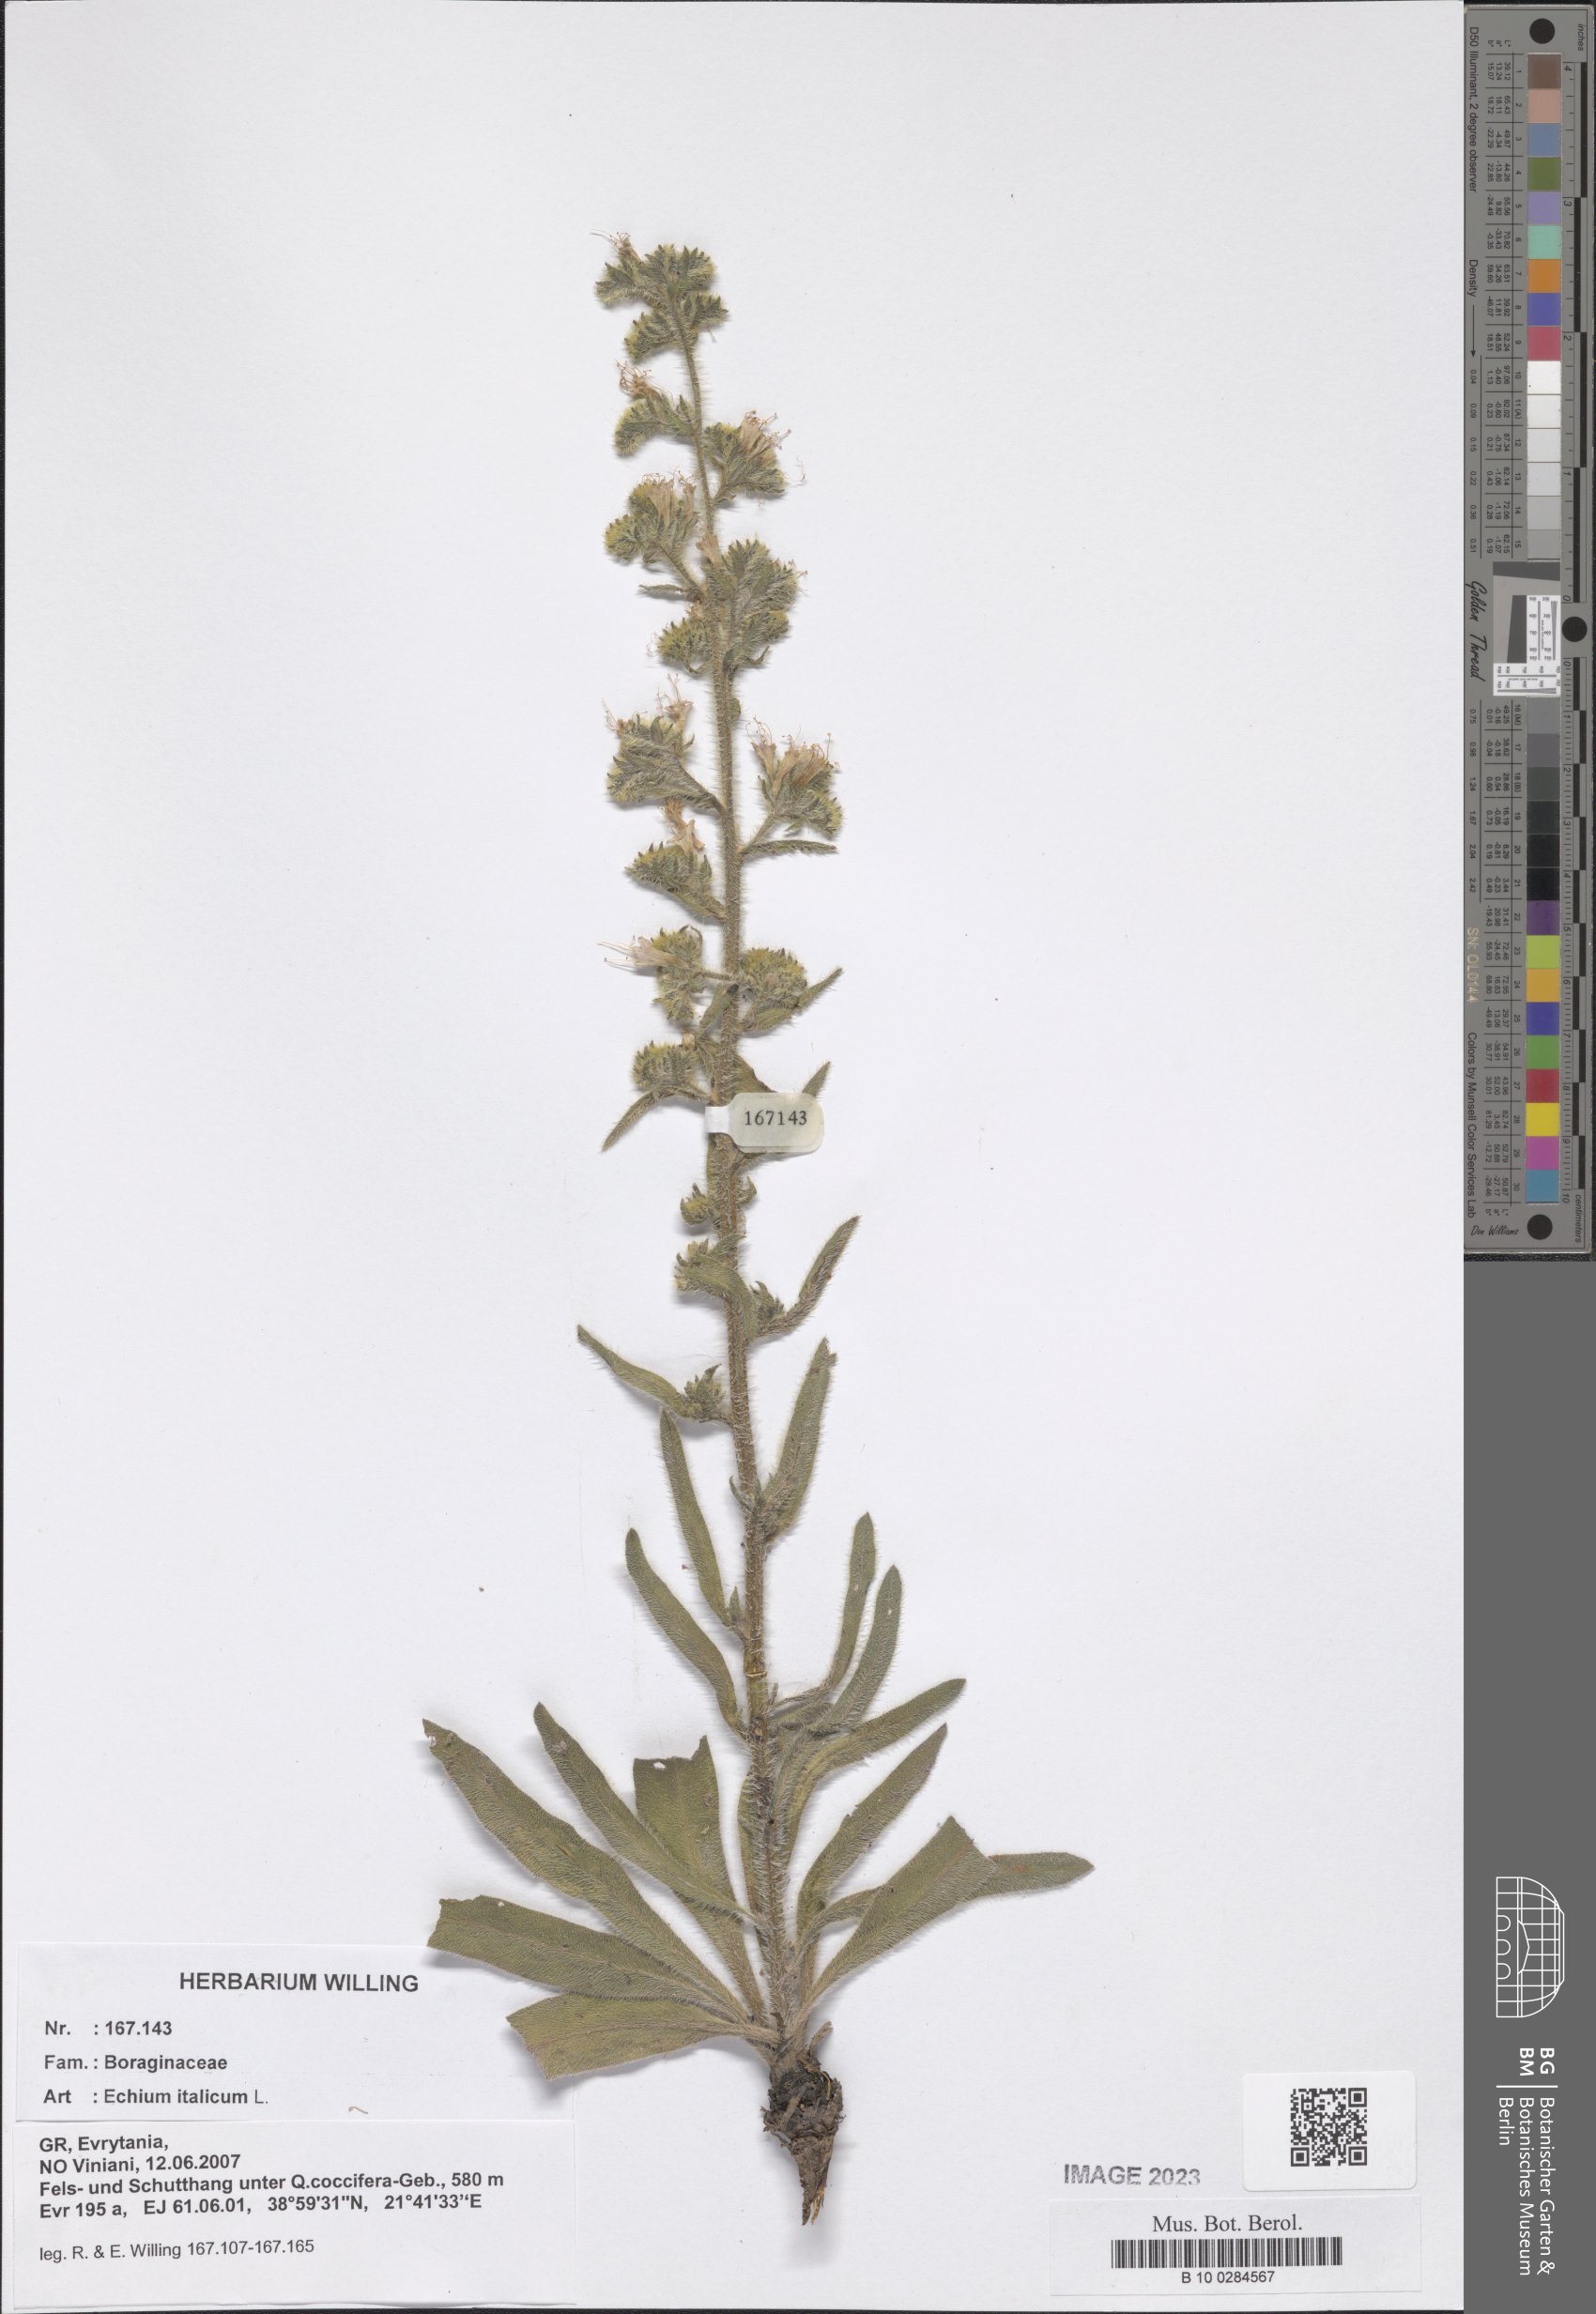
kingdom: Plantae
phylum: Tracheophyta
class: Magnoliopsida
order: Boraginales
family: Boraginaceae
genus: Echium
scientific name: Echium italicum
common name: Italian viper's bugloss
